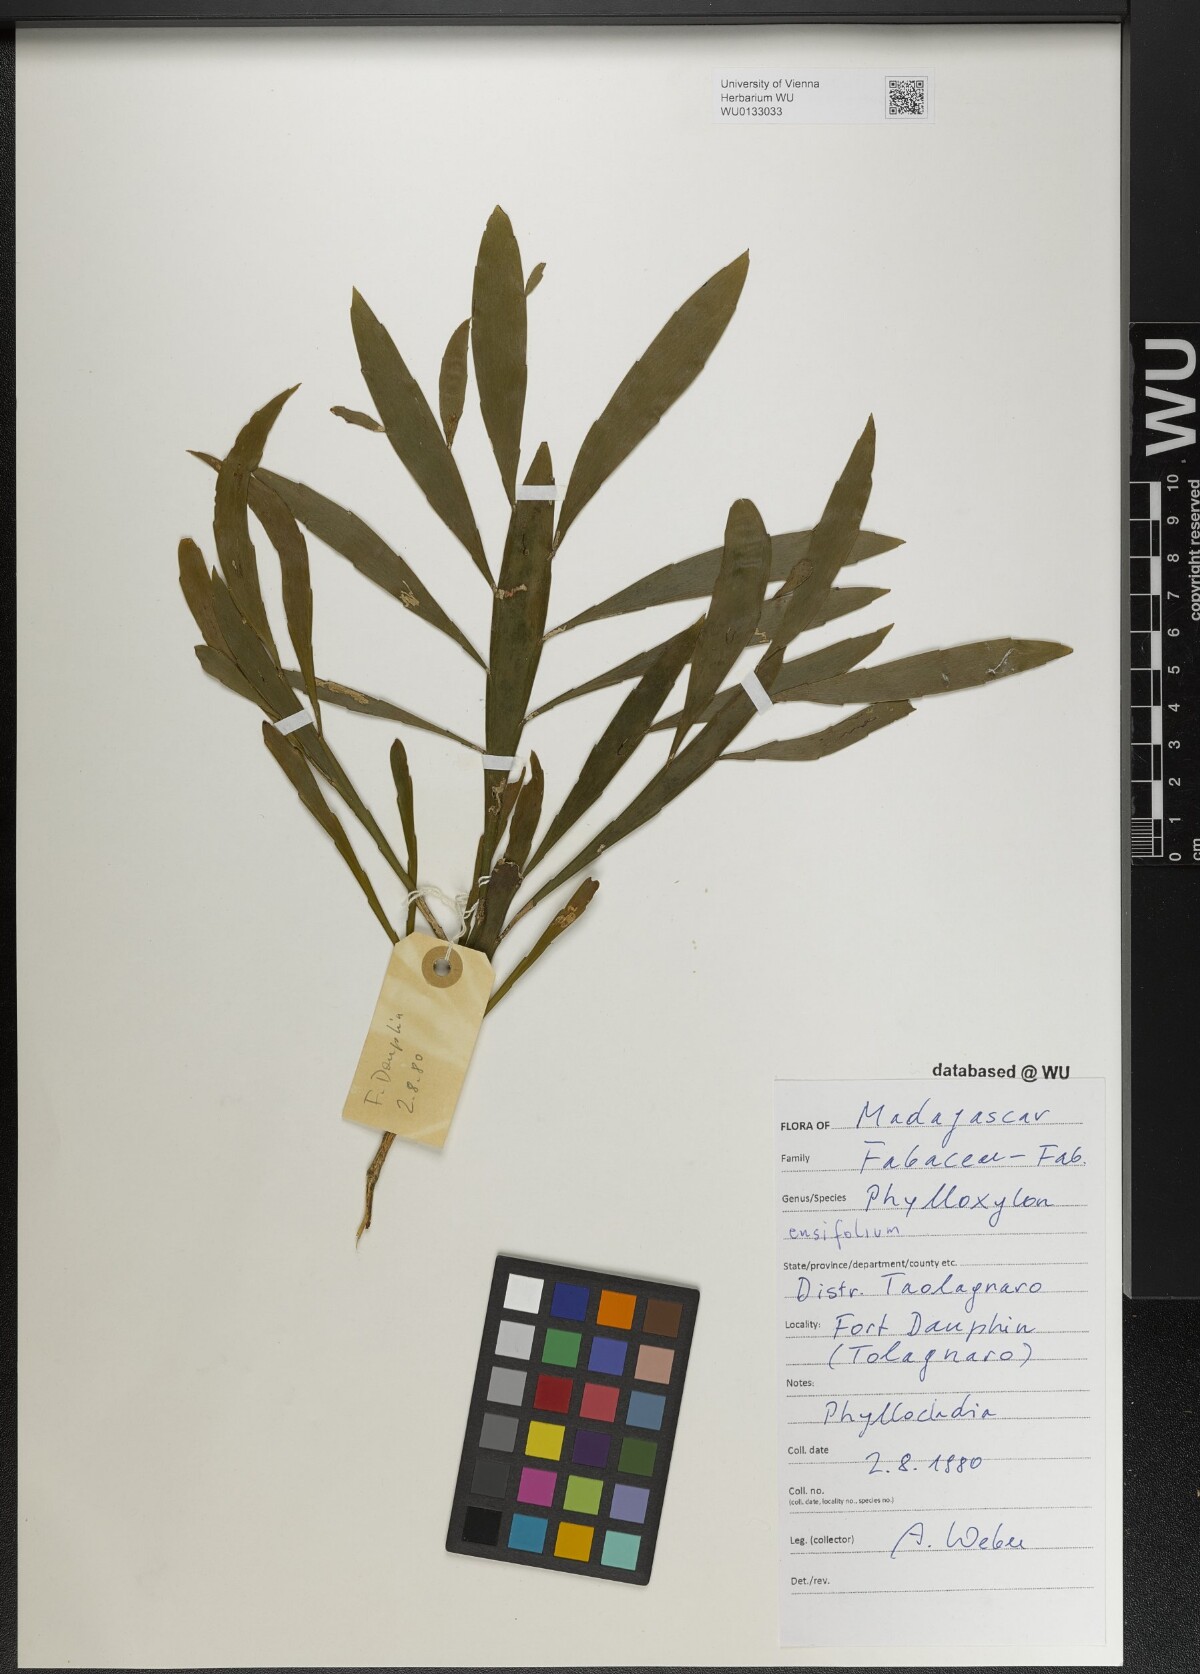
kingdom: Plantae
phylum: Tracheophyta
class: Magnoliopsida
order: Fabales
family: Fabaceae
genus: Phylloxylon
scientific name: Phylloxylon xylophylloides
